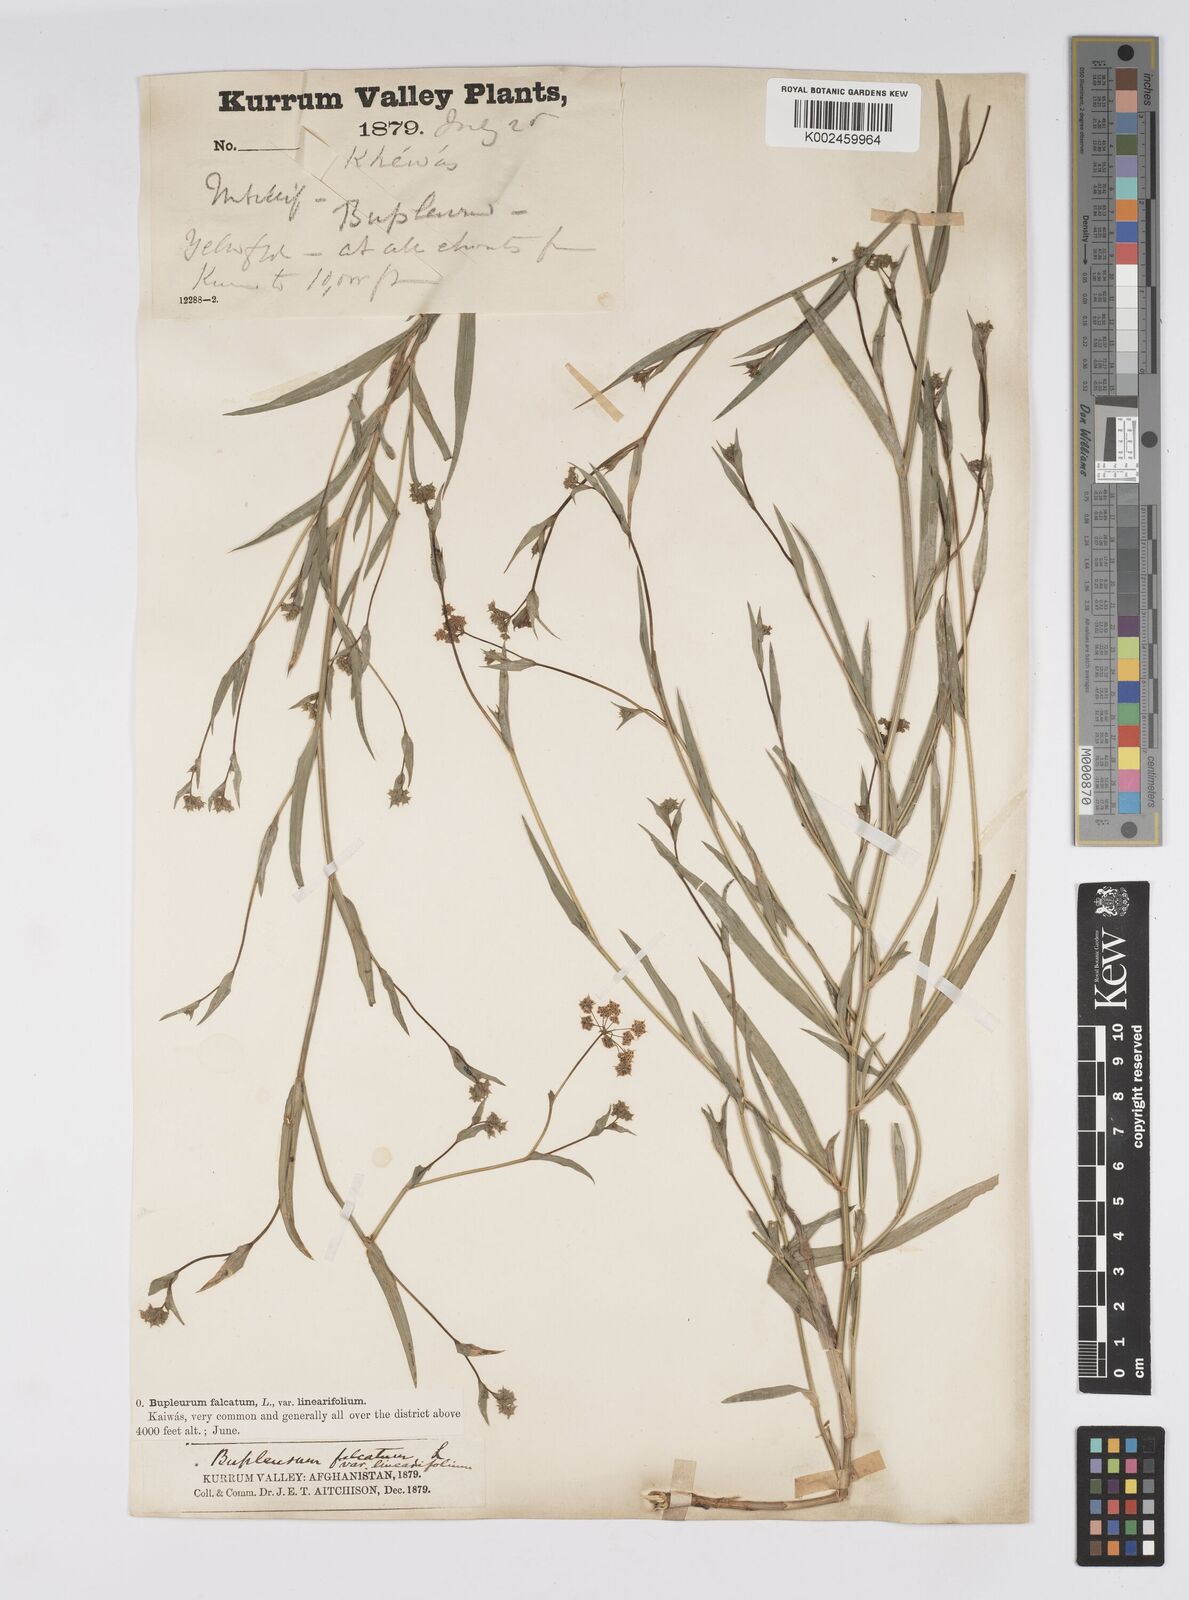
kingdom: Plantae
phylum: Tracheophyta
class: Magnoliopsida
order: Apiales
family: Apiaceae
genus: Bupleurum
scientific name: Bupleurum falcatum
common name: Sickle-leaved hare's-ear
